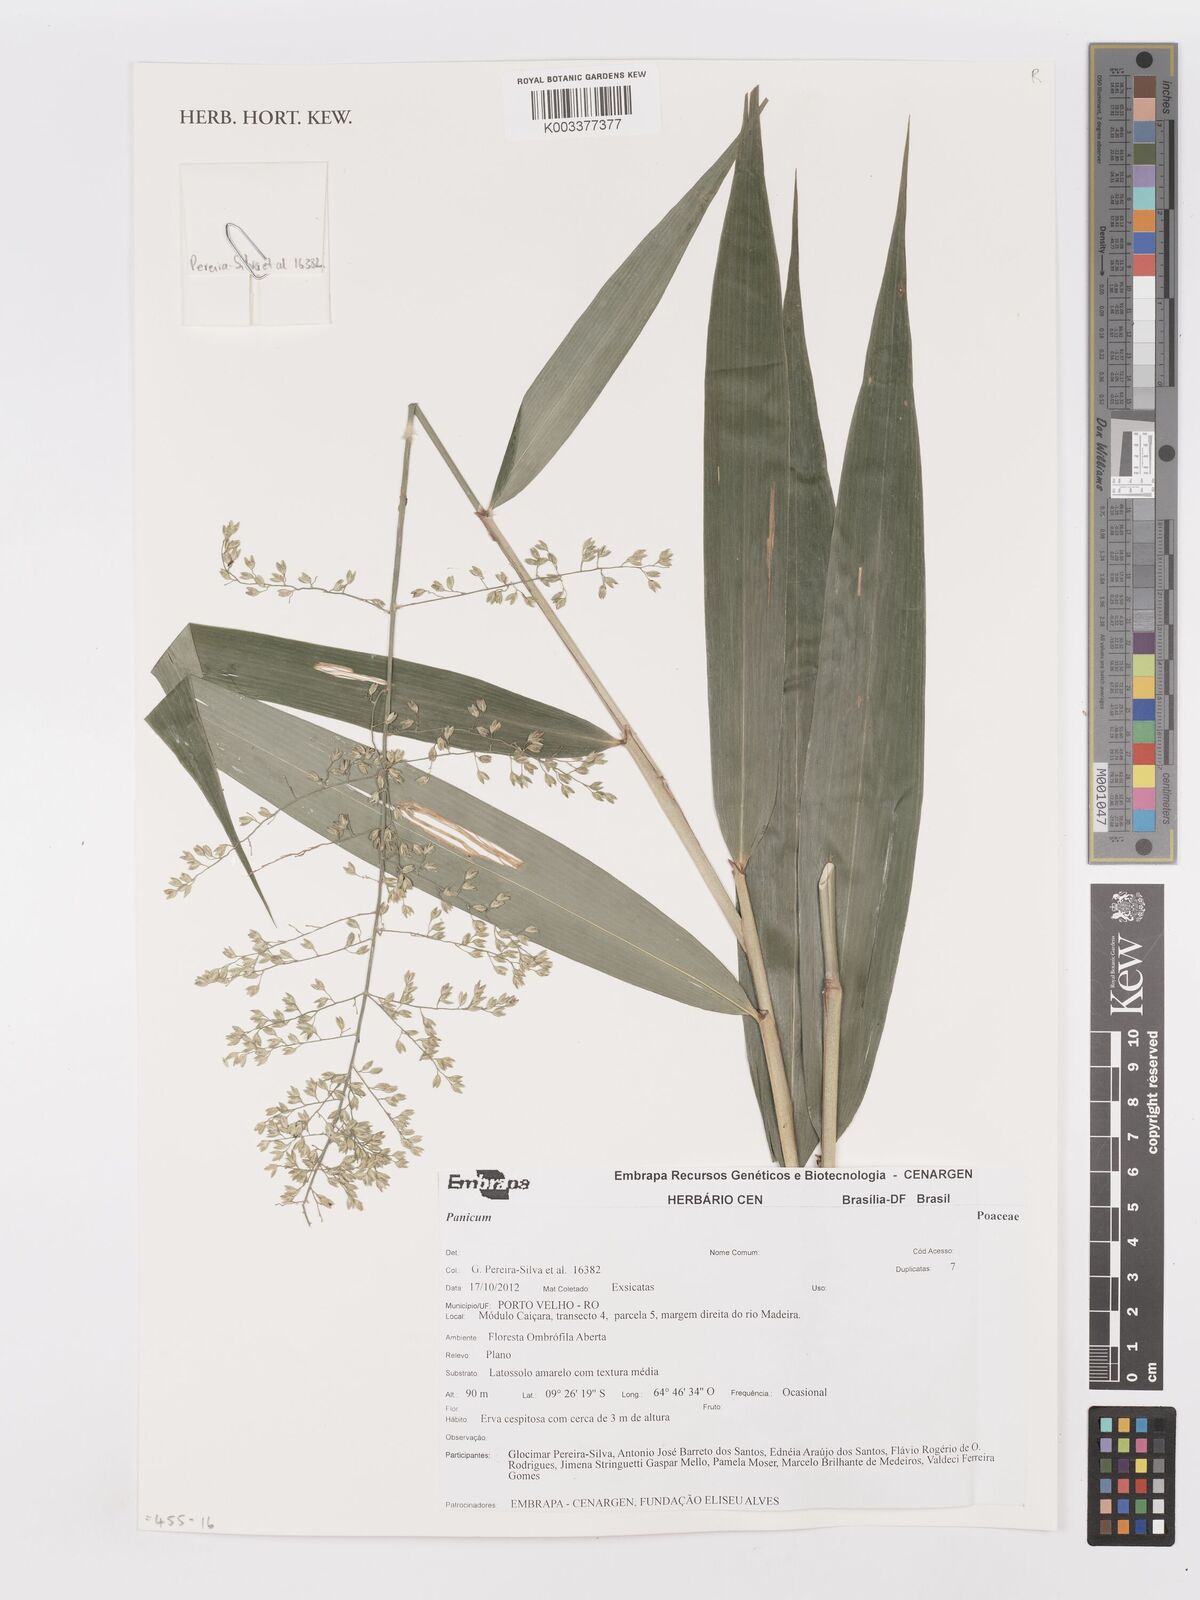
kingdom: Plantae
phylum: Tracheophyta
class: Liliopsida
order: Poales
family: Poaceae
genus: Panicum
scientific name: Panicum
